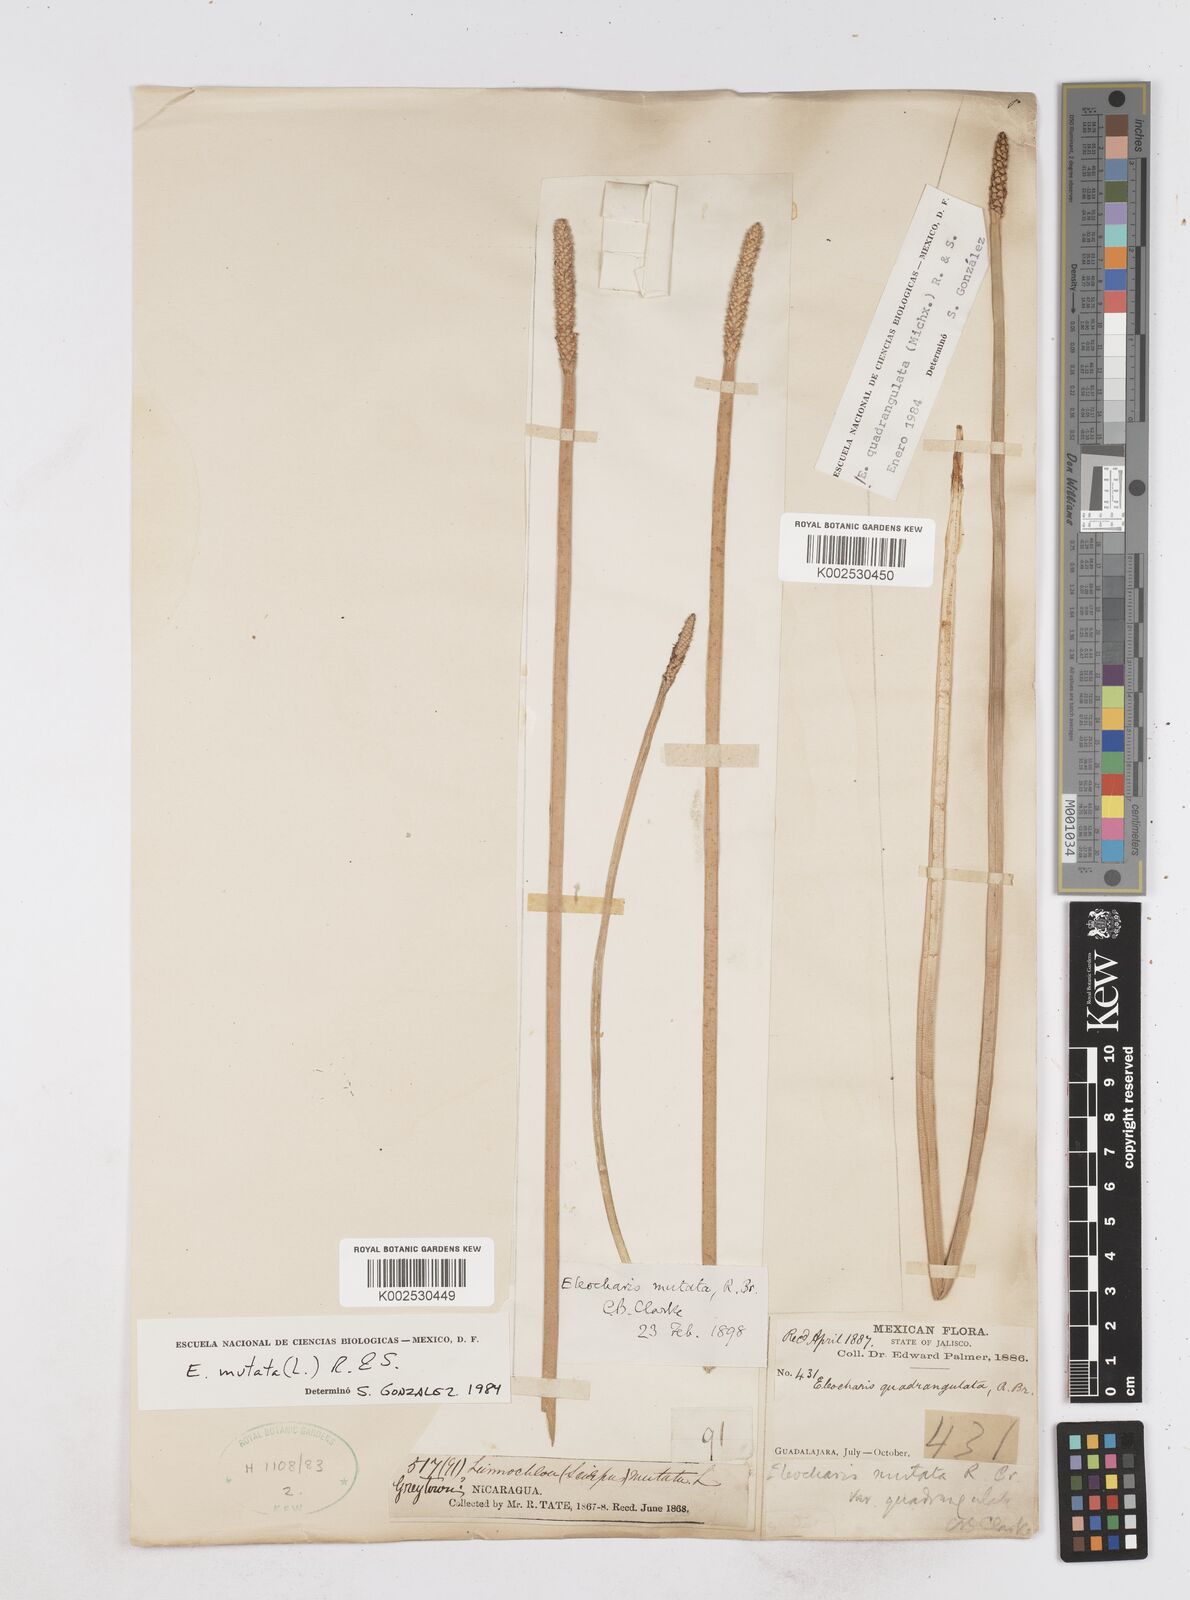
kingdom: Plantae
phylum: Tracheophyta
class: Liliopsida
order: Poales
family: Cyperaceae
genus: Eleocharis
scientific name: Eleocharis mutata
